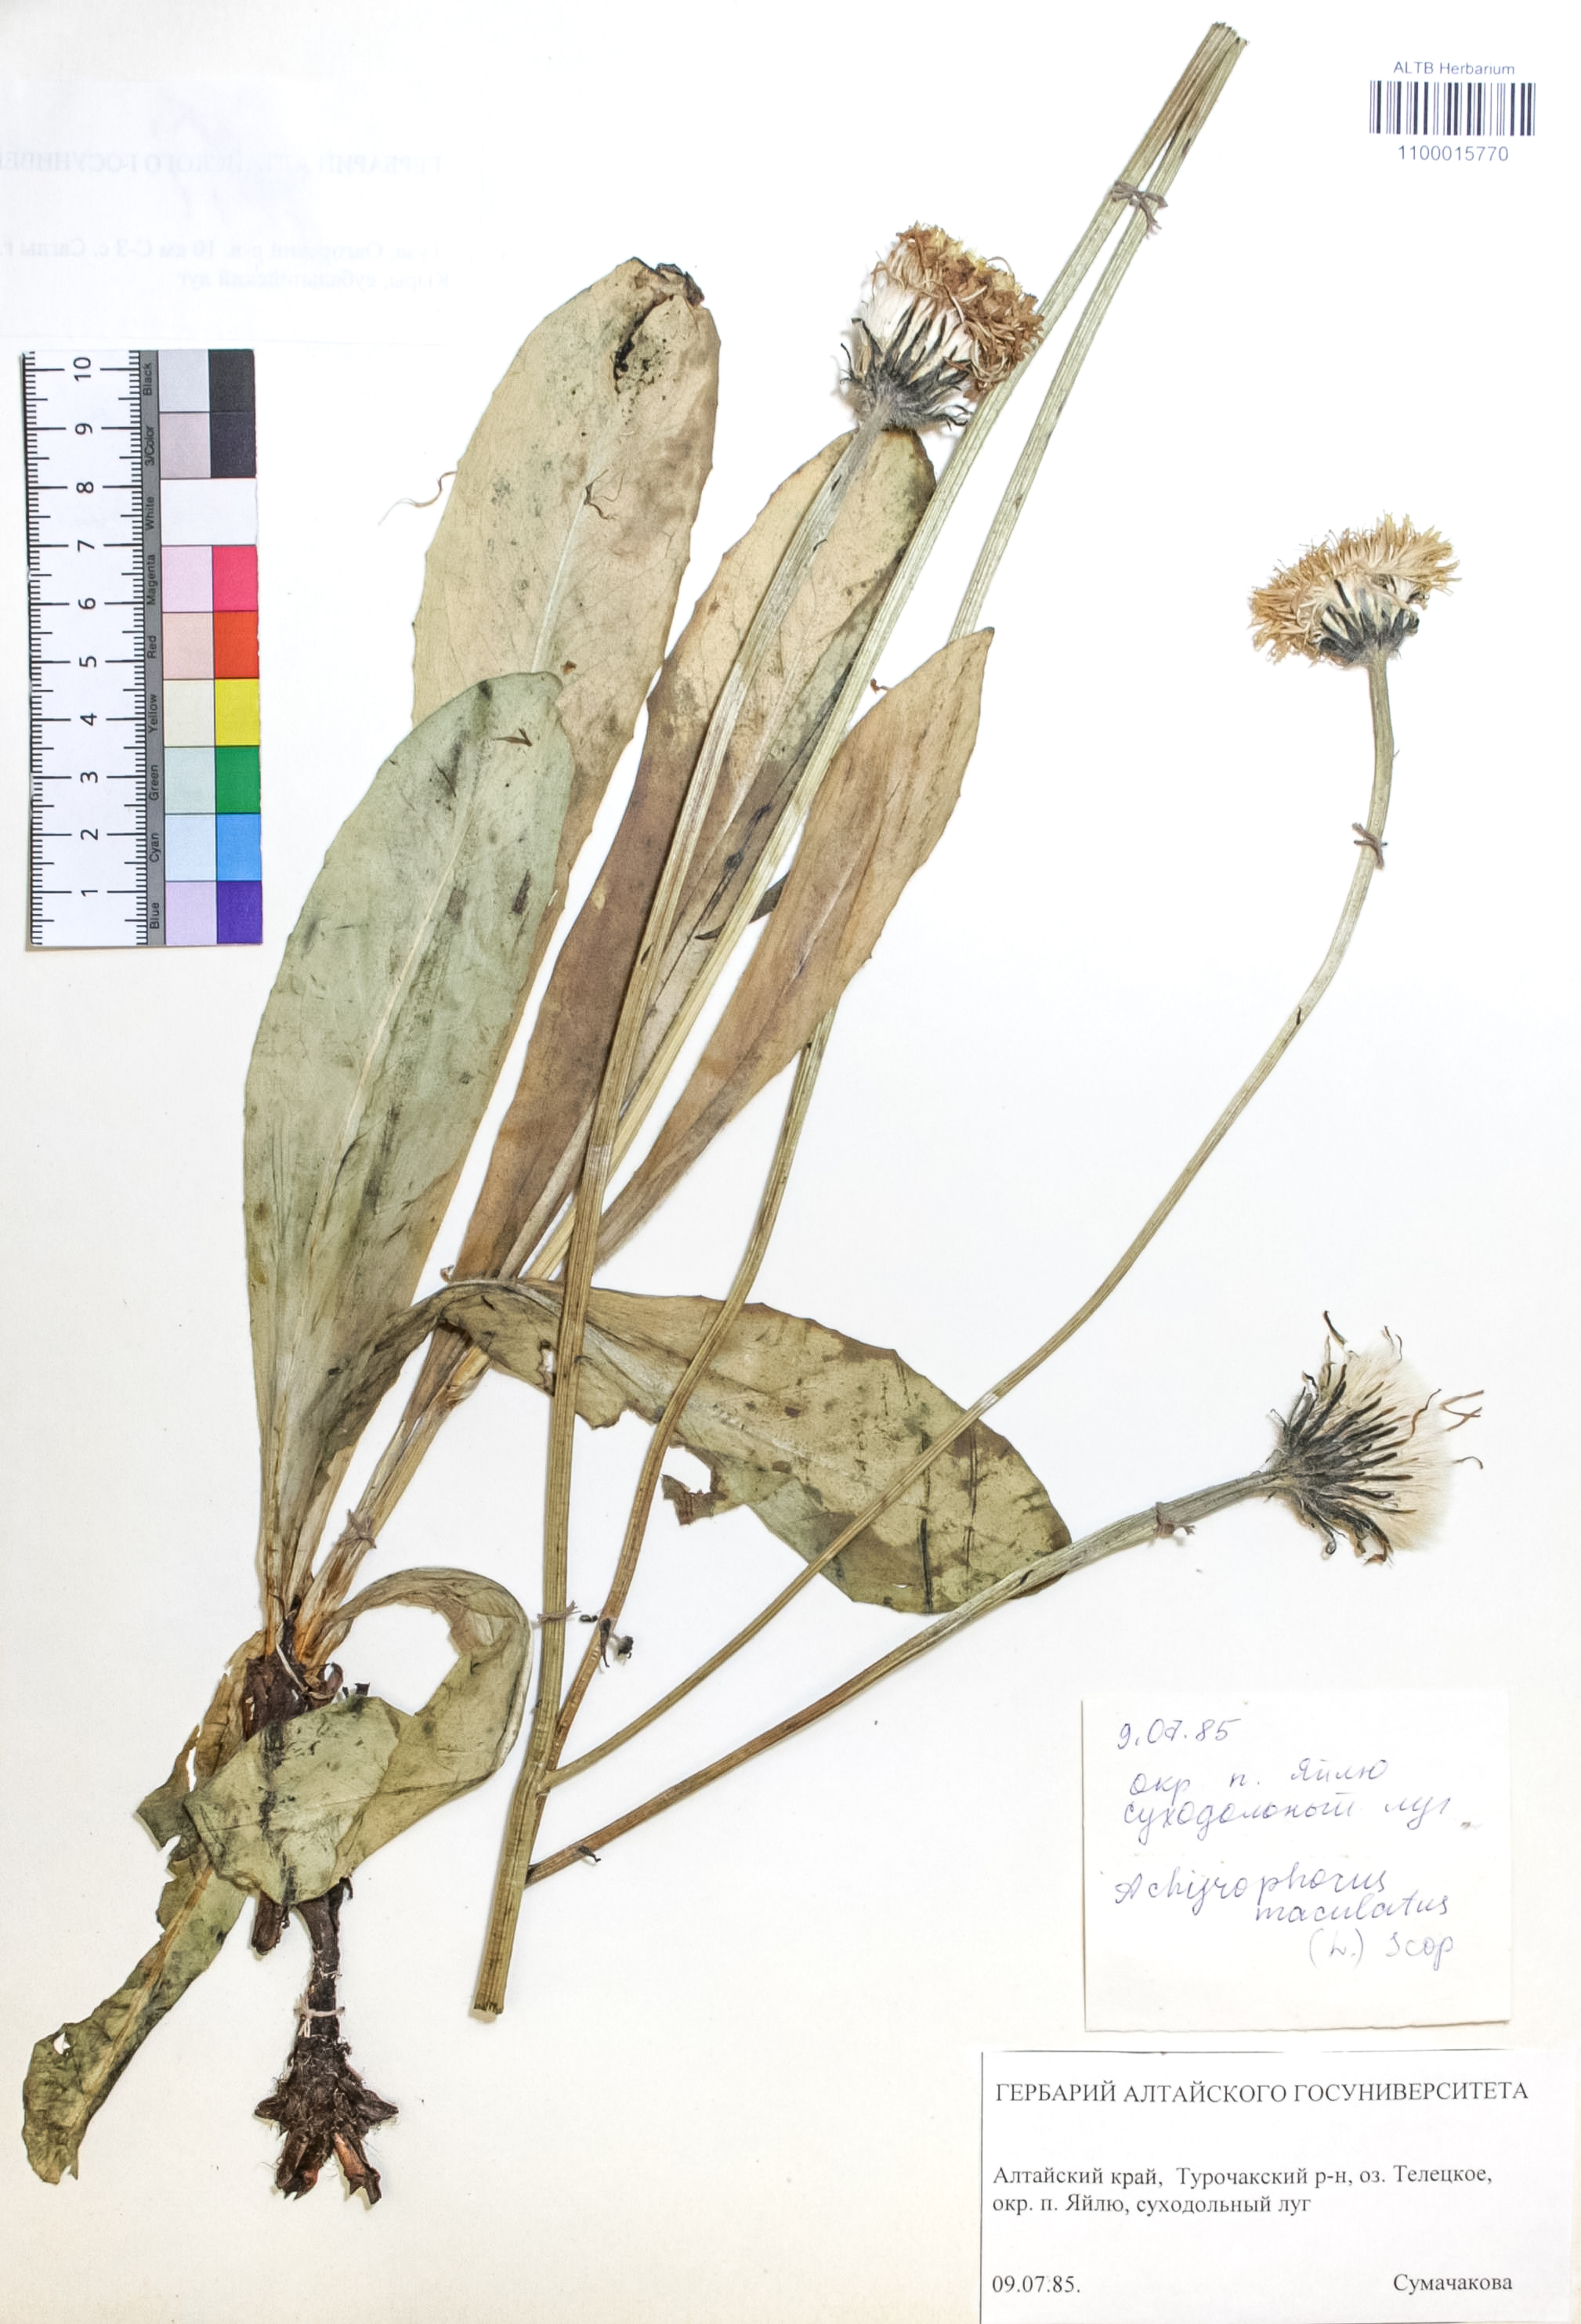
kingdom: Plantae
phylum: Tracheophyta
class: Magnoliopsida
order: Asterales
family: Asteraceae
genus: Trommsdorffia
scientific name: Trommsdorffia maculata
